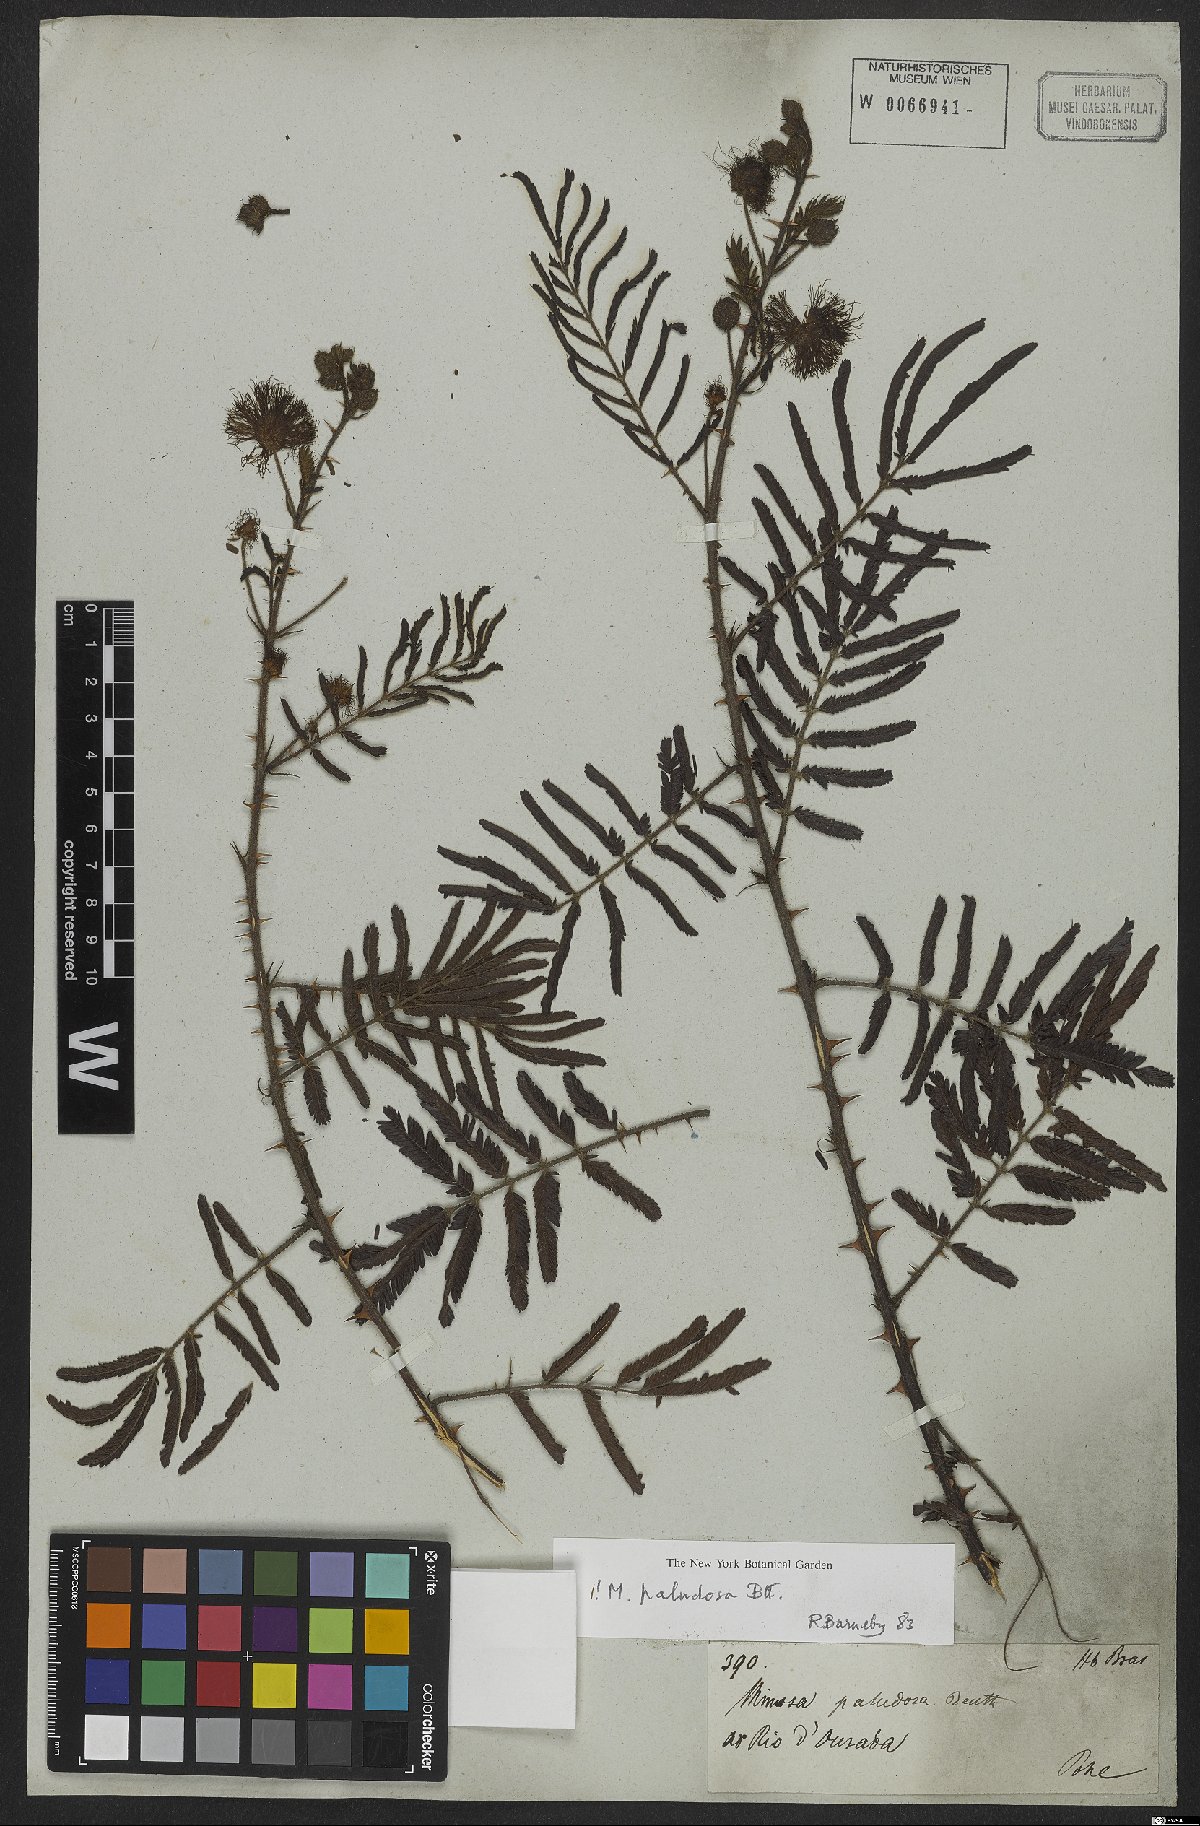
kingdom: Plantae
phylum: Tracheophyta
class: Magnoliopsida
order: Fabales
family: Fabaceae
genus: Mimosa
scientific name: Mimosa paludosa
